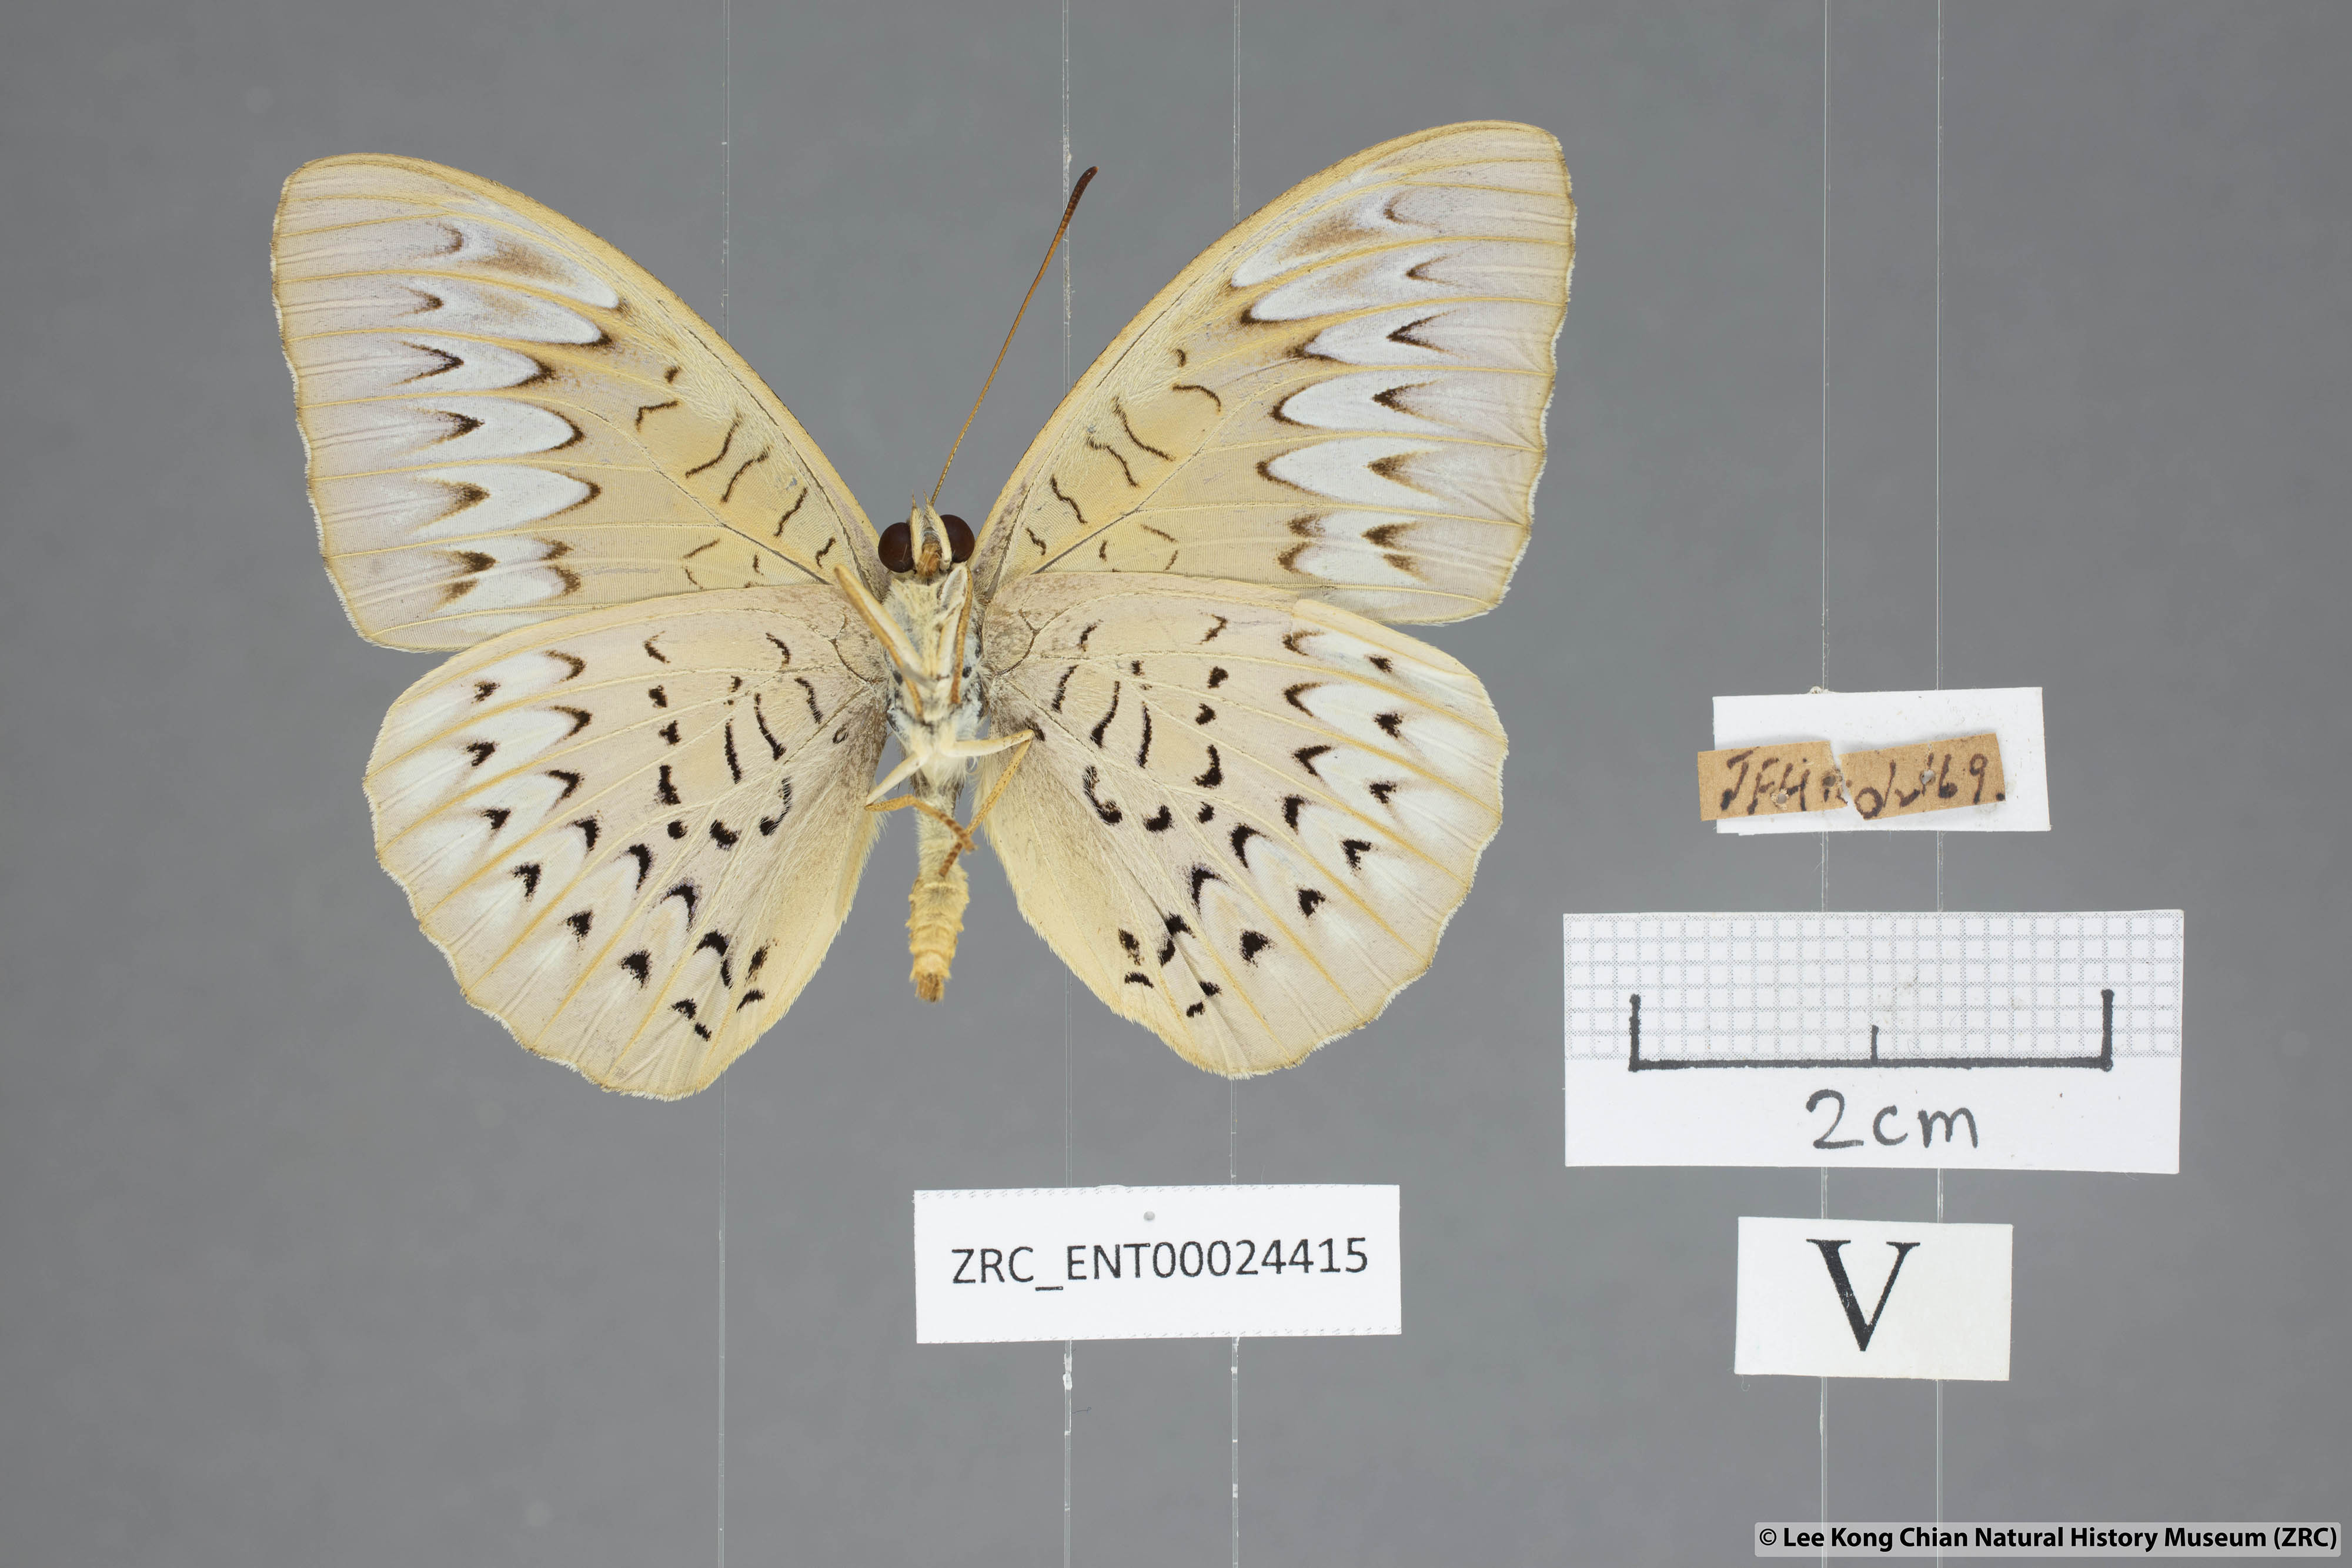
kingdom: Animalia
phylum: Arthropoda
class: Insecta
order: Lepidoptera
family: Nymphalidae
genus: Tanaecia
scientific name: Tanaecia pelea
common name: Malay viscount
